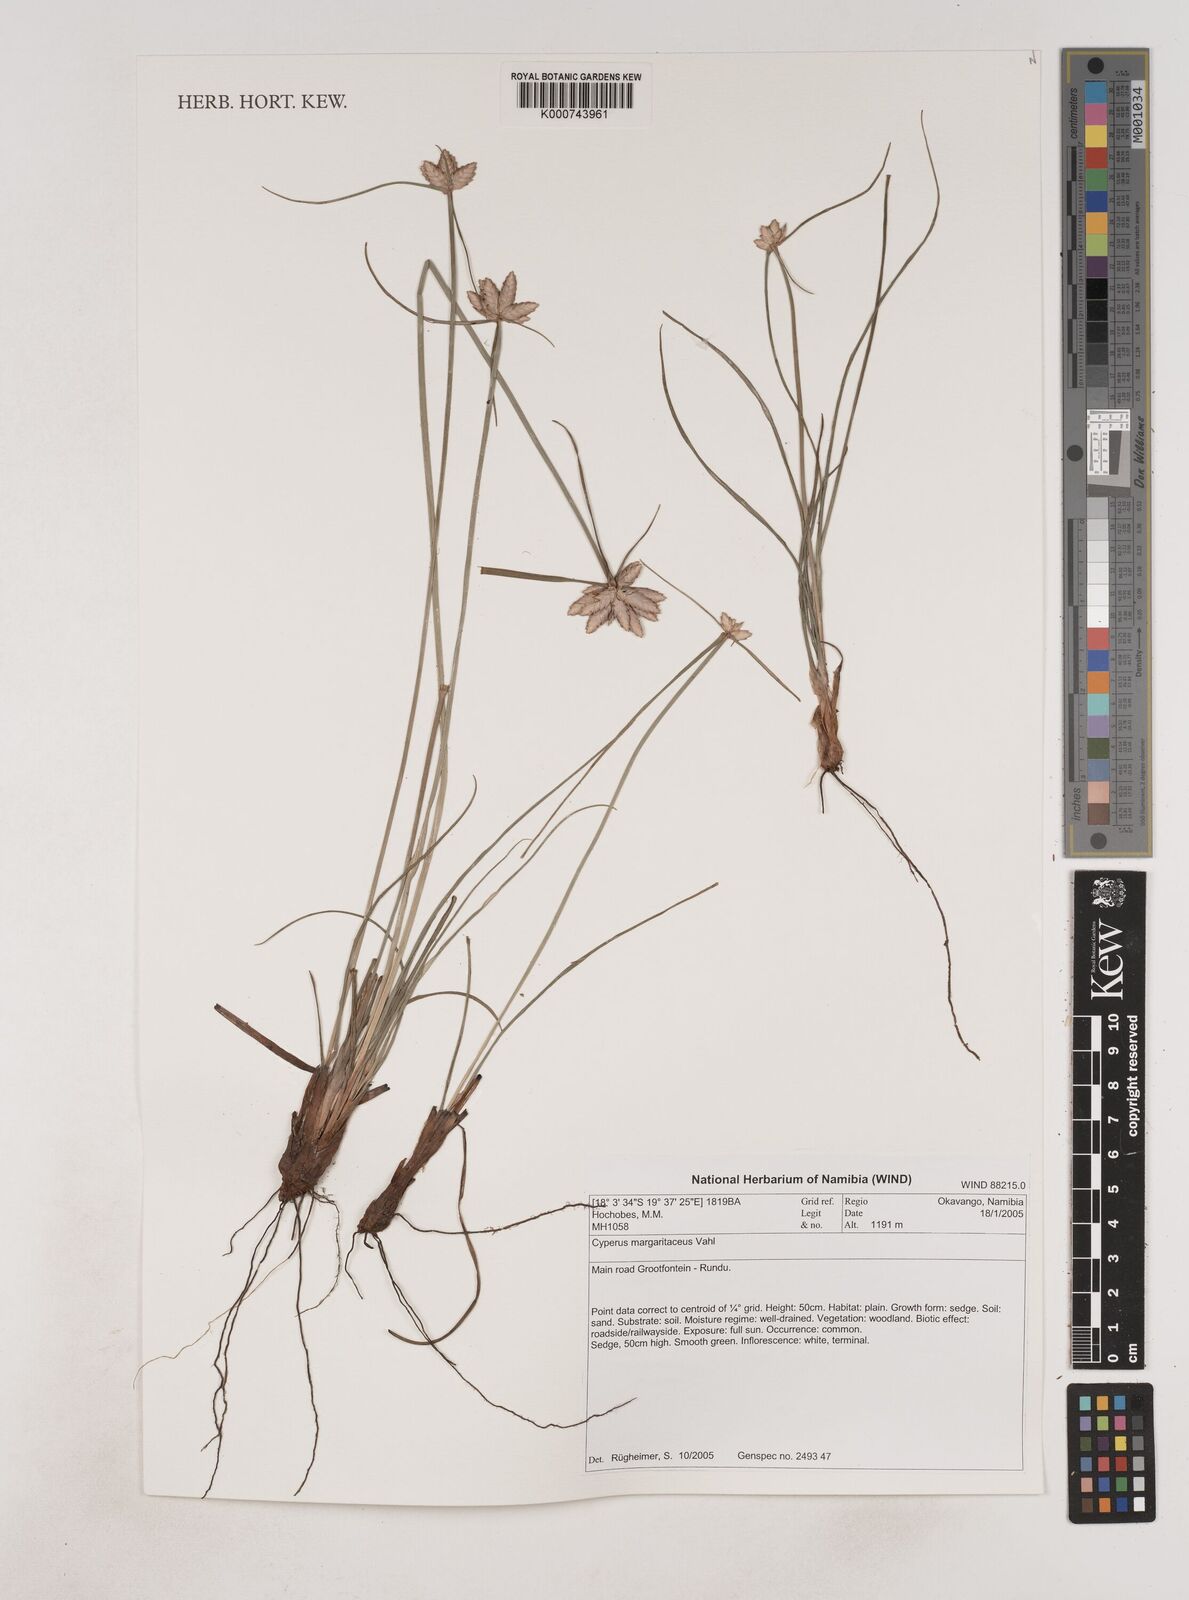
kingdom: Plantae
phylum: Tracheophyta
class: Liliopsida
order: Poales
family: Cyperaceae
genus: Cyperus
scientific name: Cyperus margaritaceus
